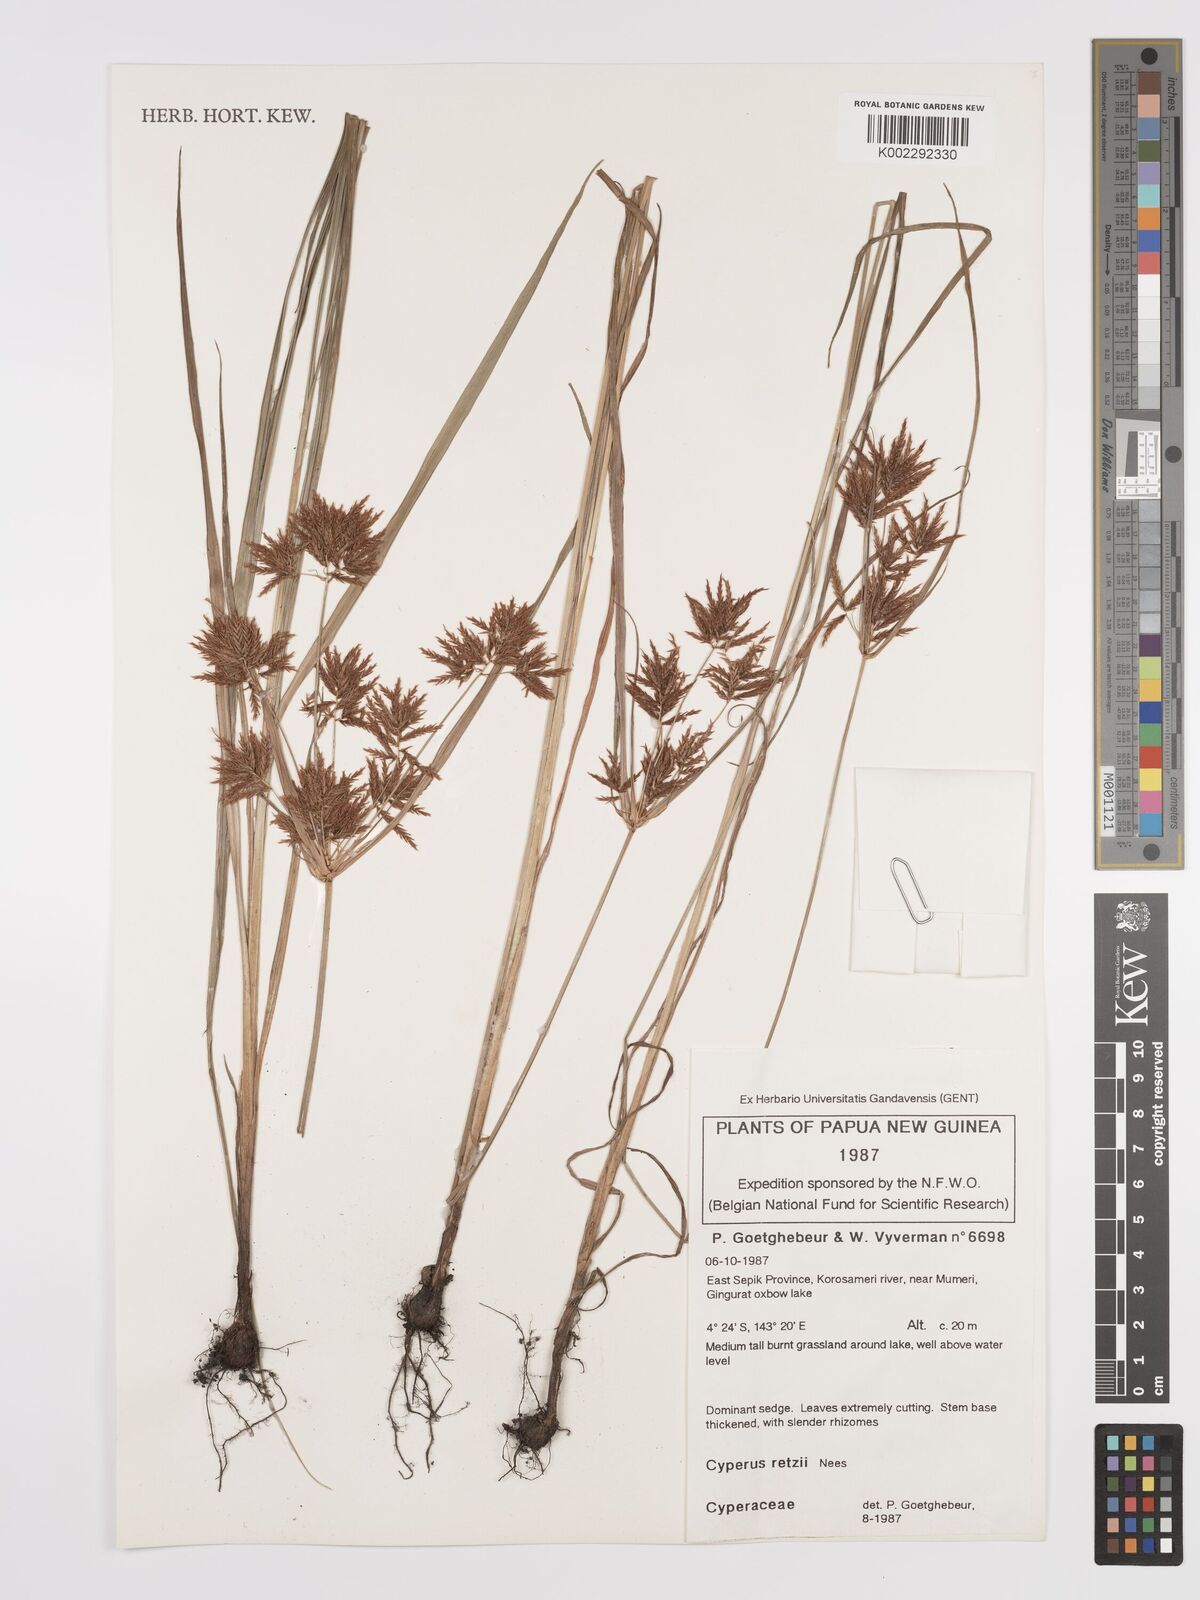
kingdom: Plantae
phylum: Tracheophyta
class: Liliopsida
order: Poales
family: Cyperaceae
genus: Cyperus
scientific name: Cyperus bifax
